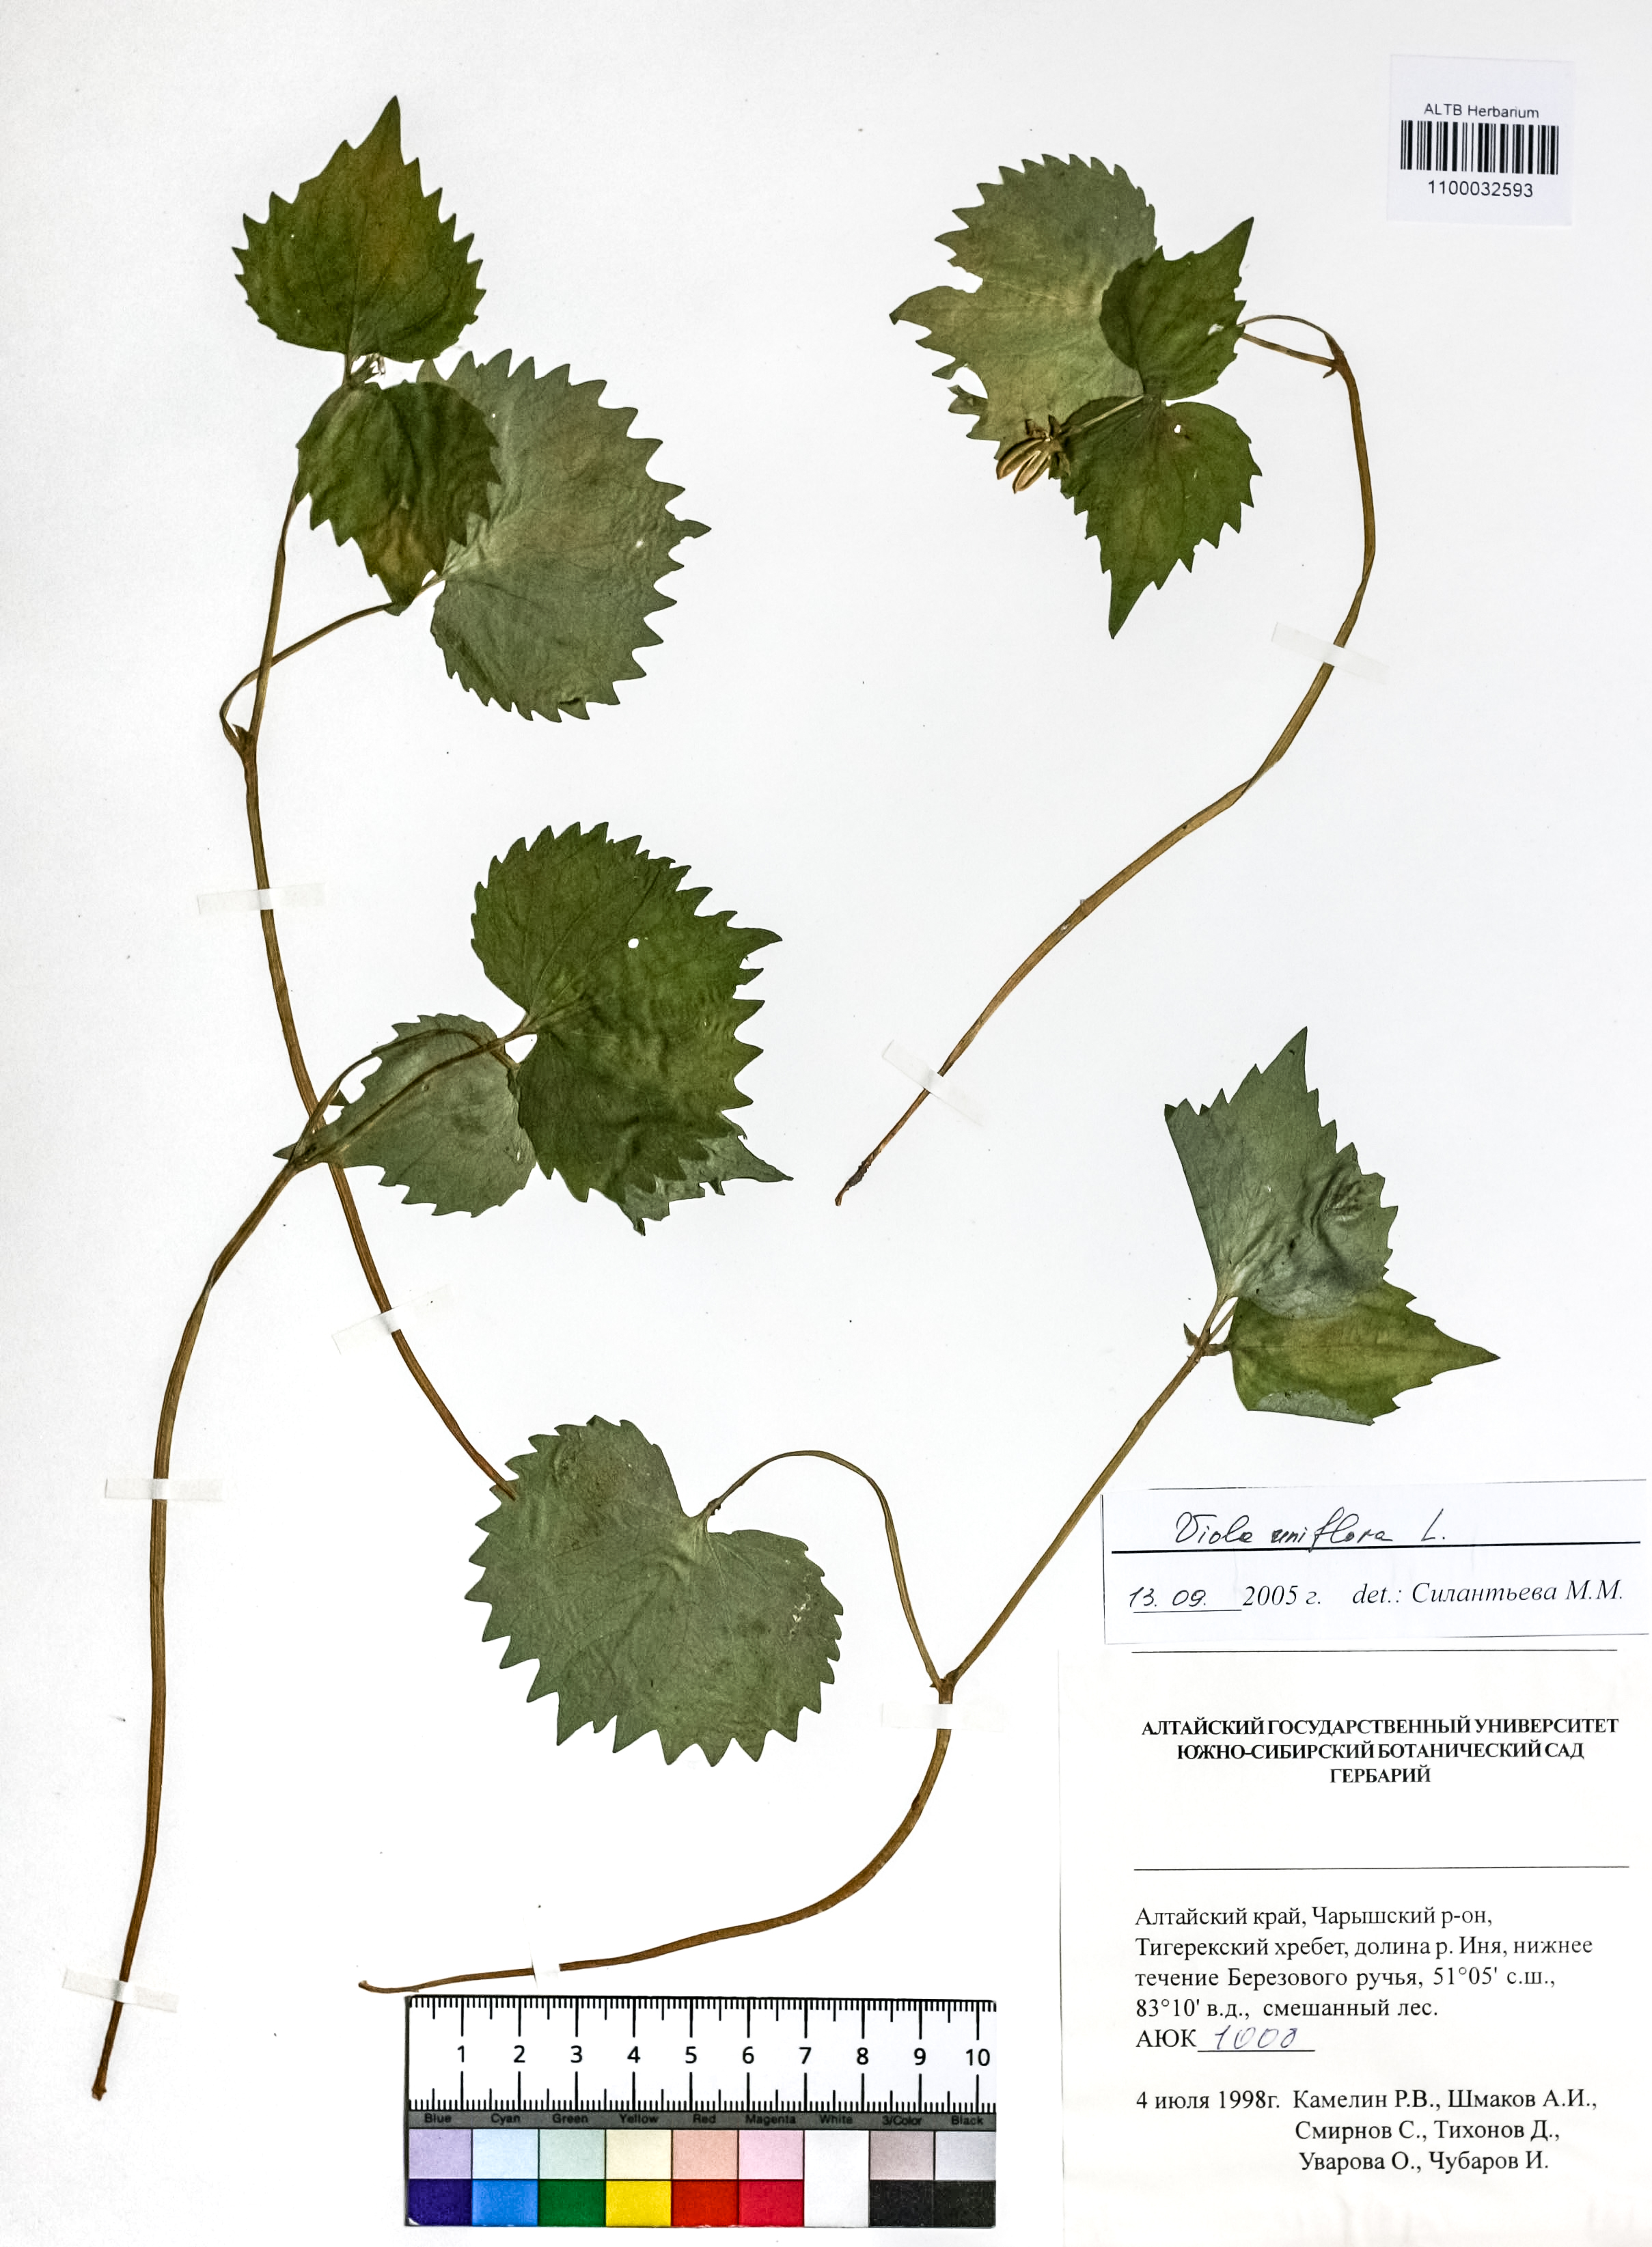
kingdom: Plantae
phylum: Tracheophyta
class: Magnoliopsida
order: Malpighiales
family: Violaceae
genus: Viola
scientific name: Viola uniflora
